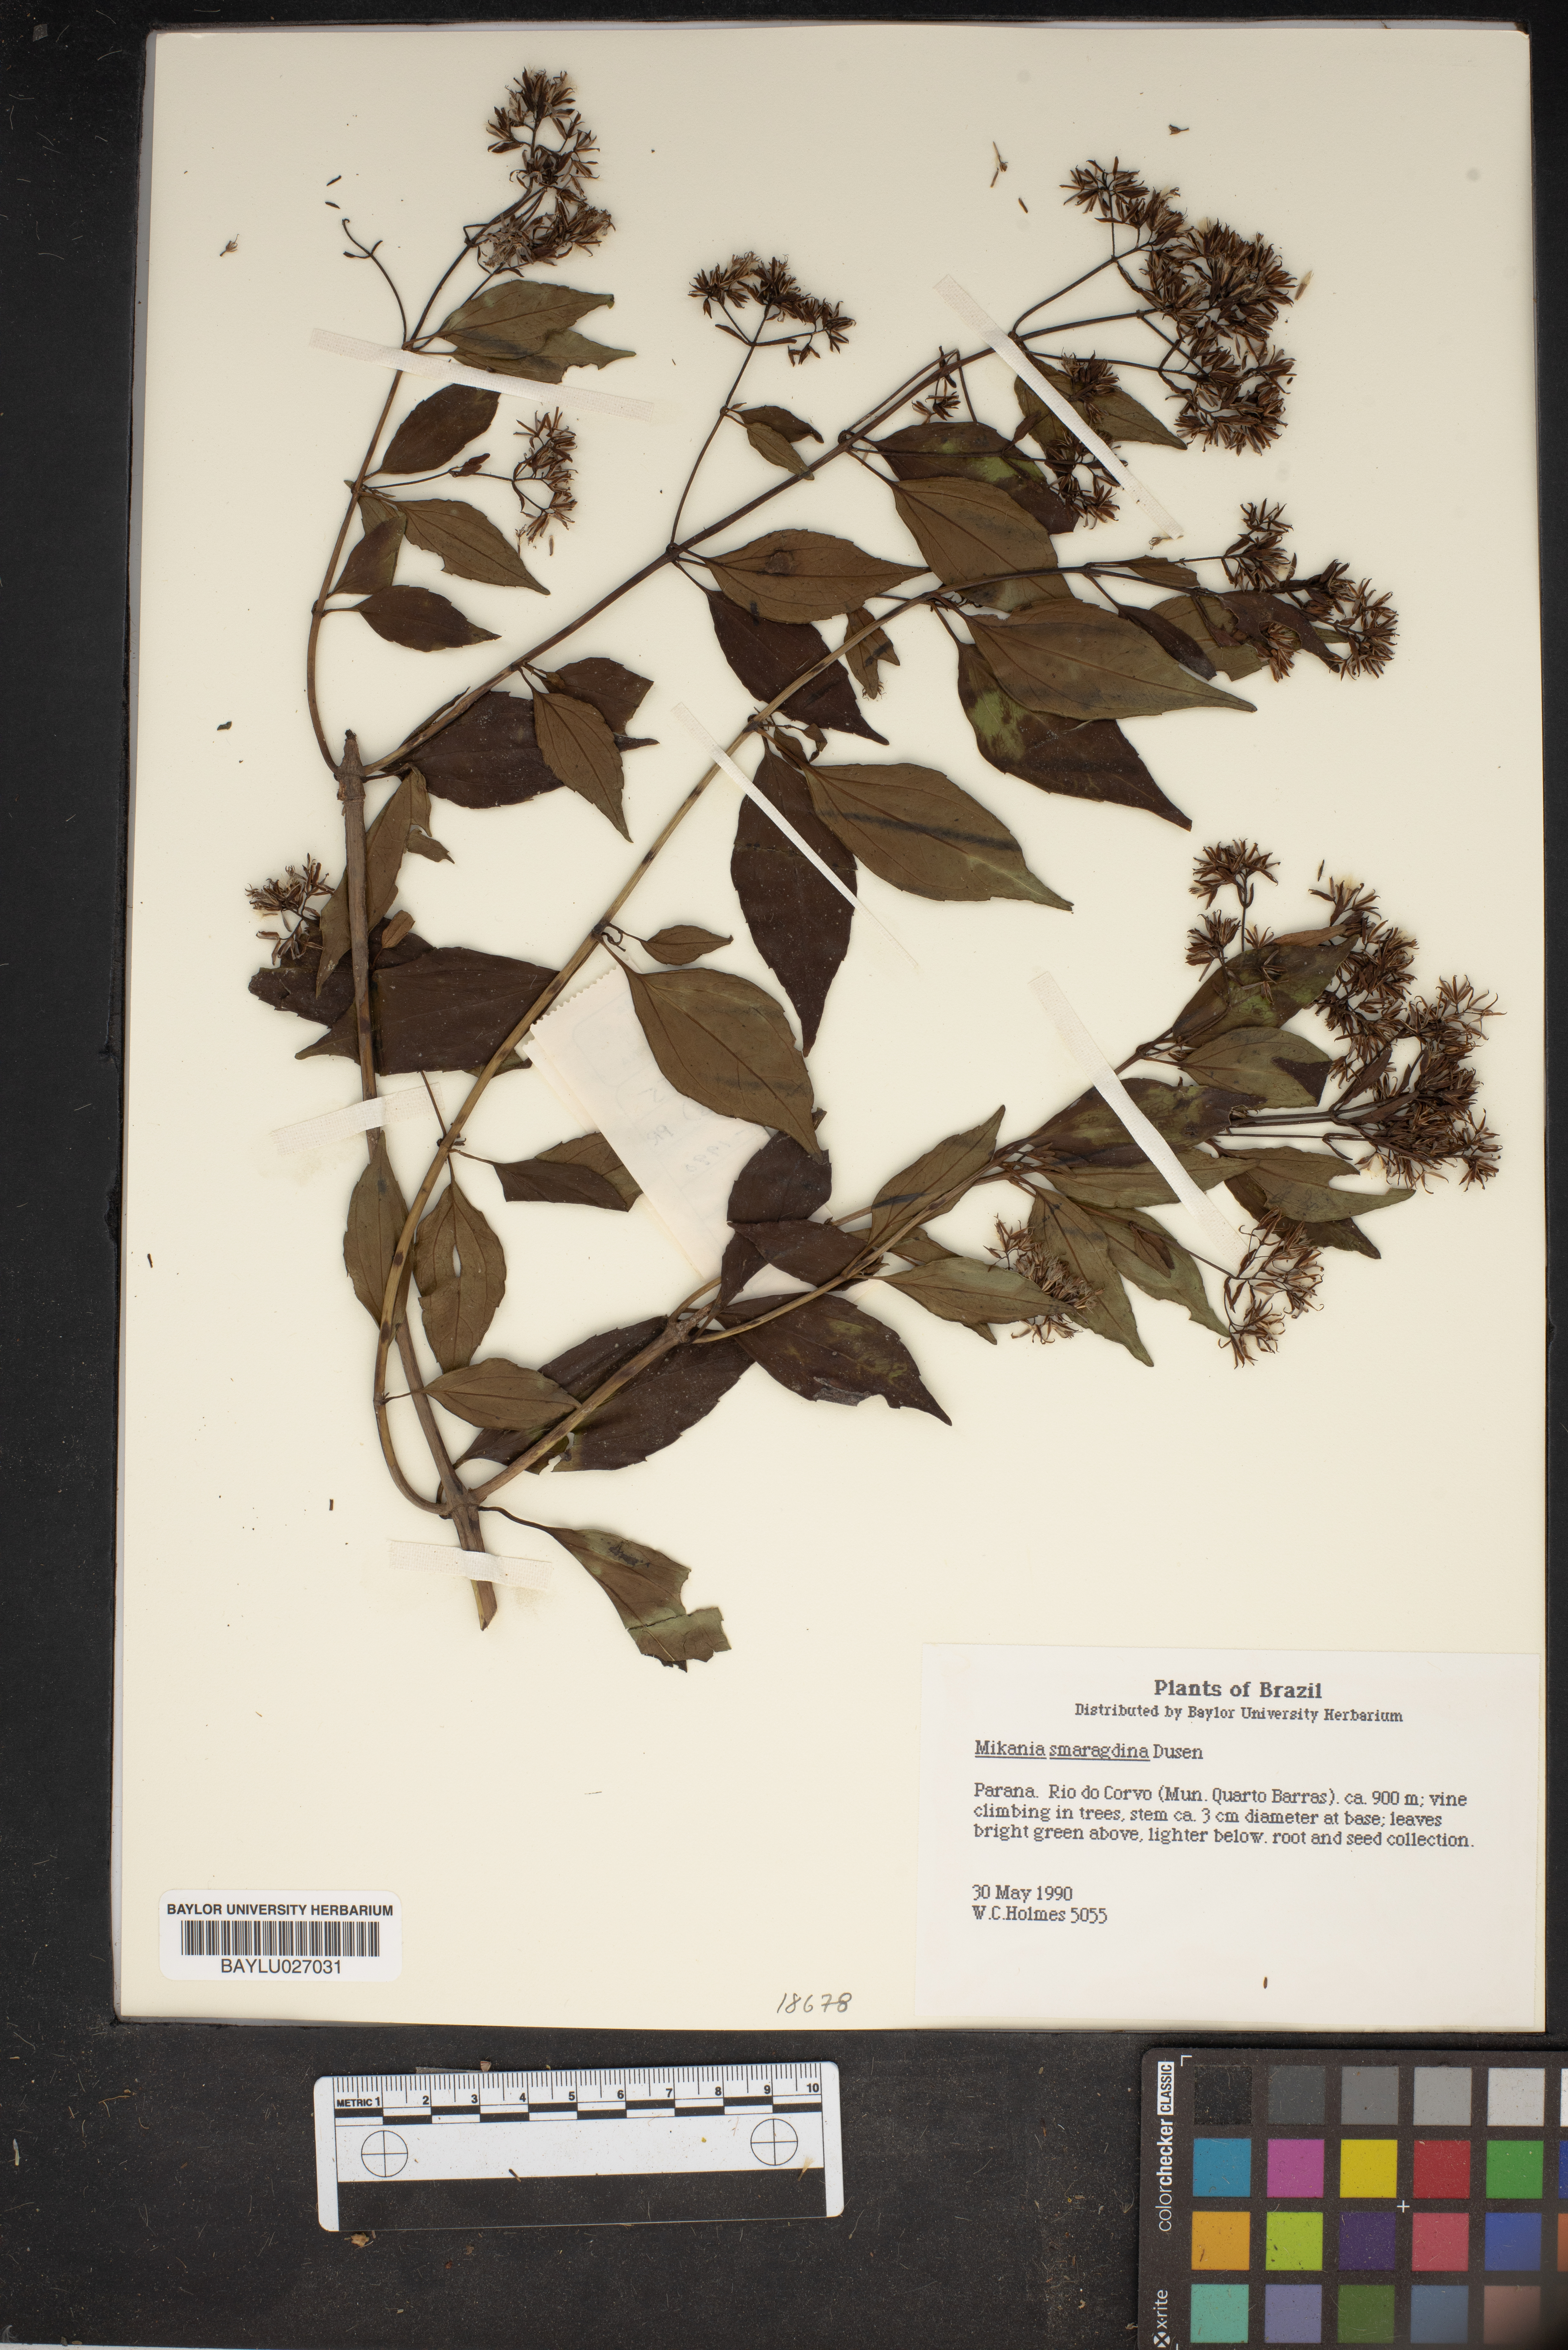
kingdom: Plantae
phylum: Tracheophyta
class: Magnoliopsida
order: Asterales
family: Asteraceae
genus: Mikania
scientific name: Mikania smaragdina
